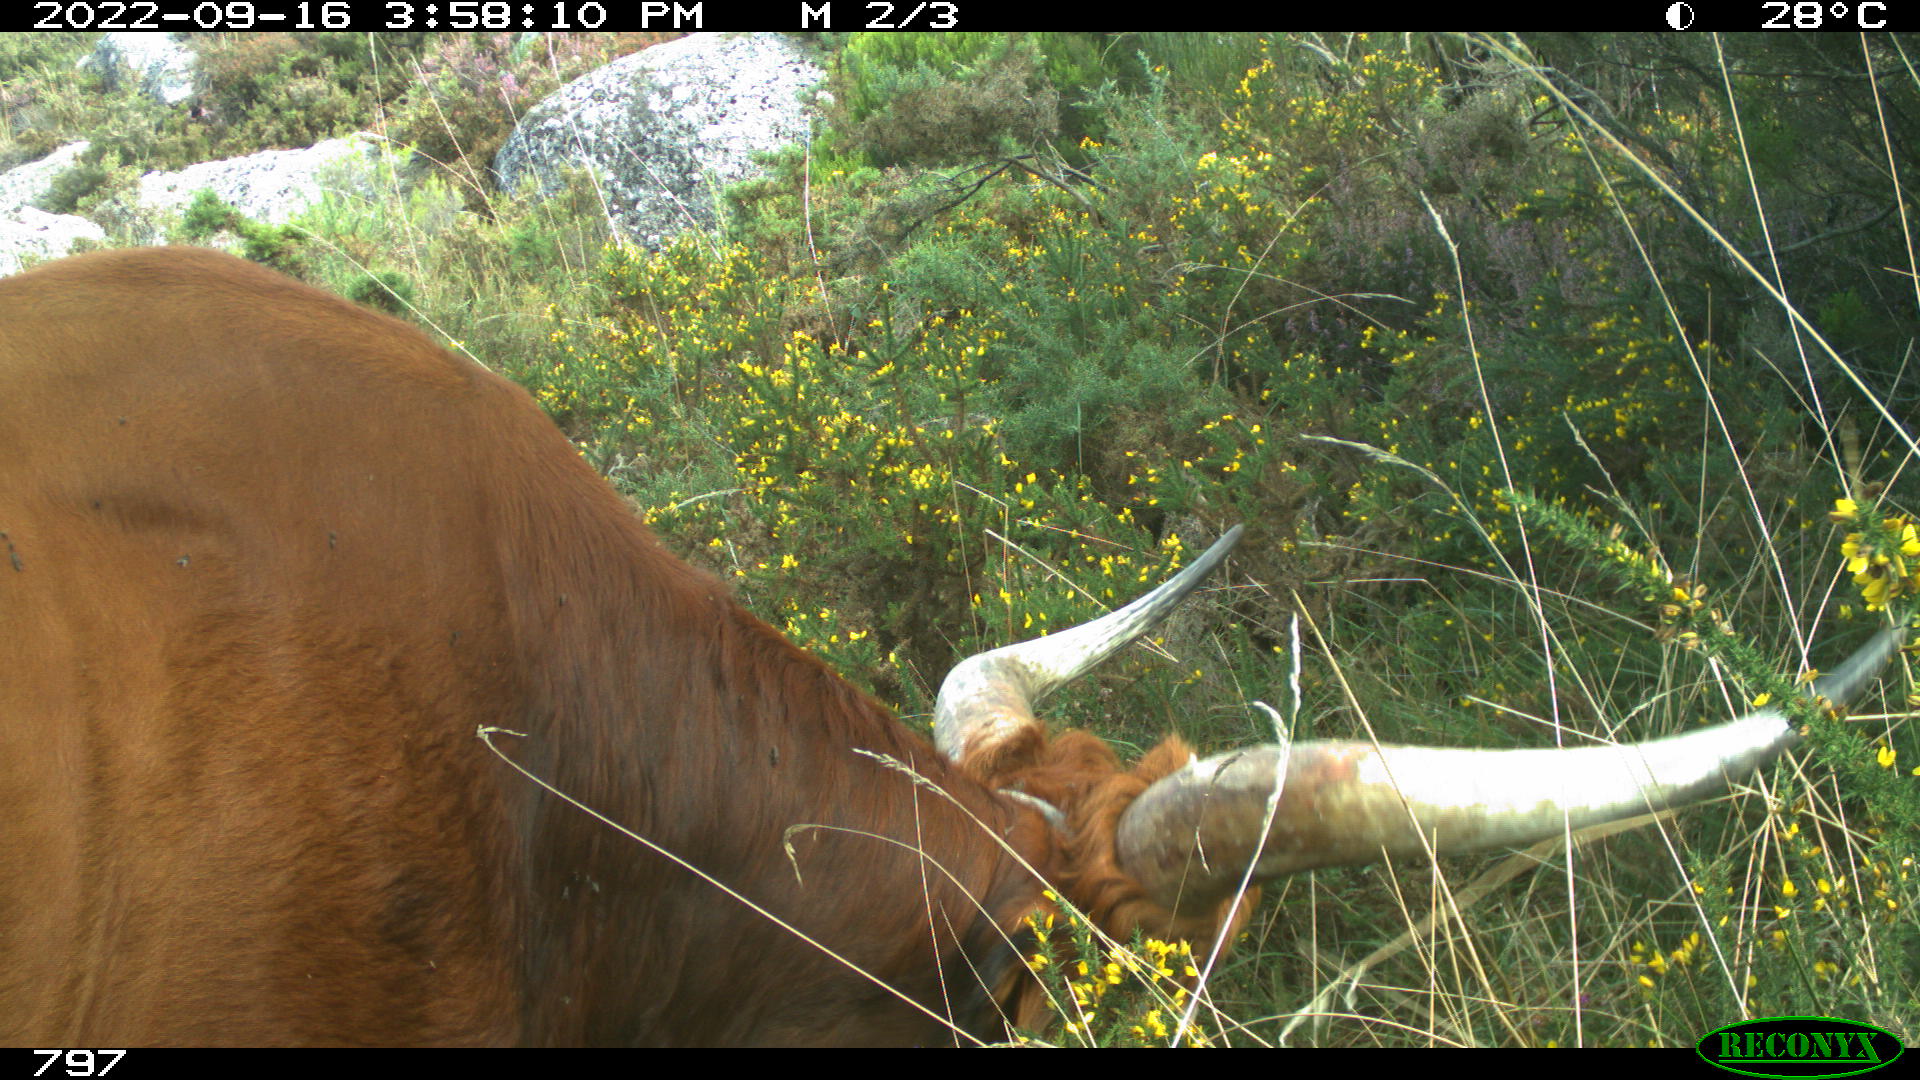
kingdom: Animalia
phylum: Chordata
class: Mammalia
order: Artiodactyla
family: Bovidae
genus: Bos
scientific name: Bos taurus
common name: Domesticated cattle
